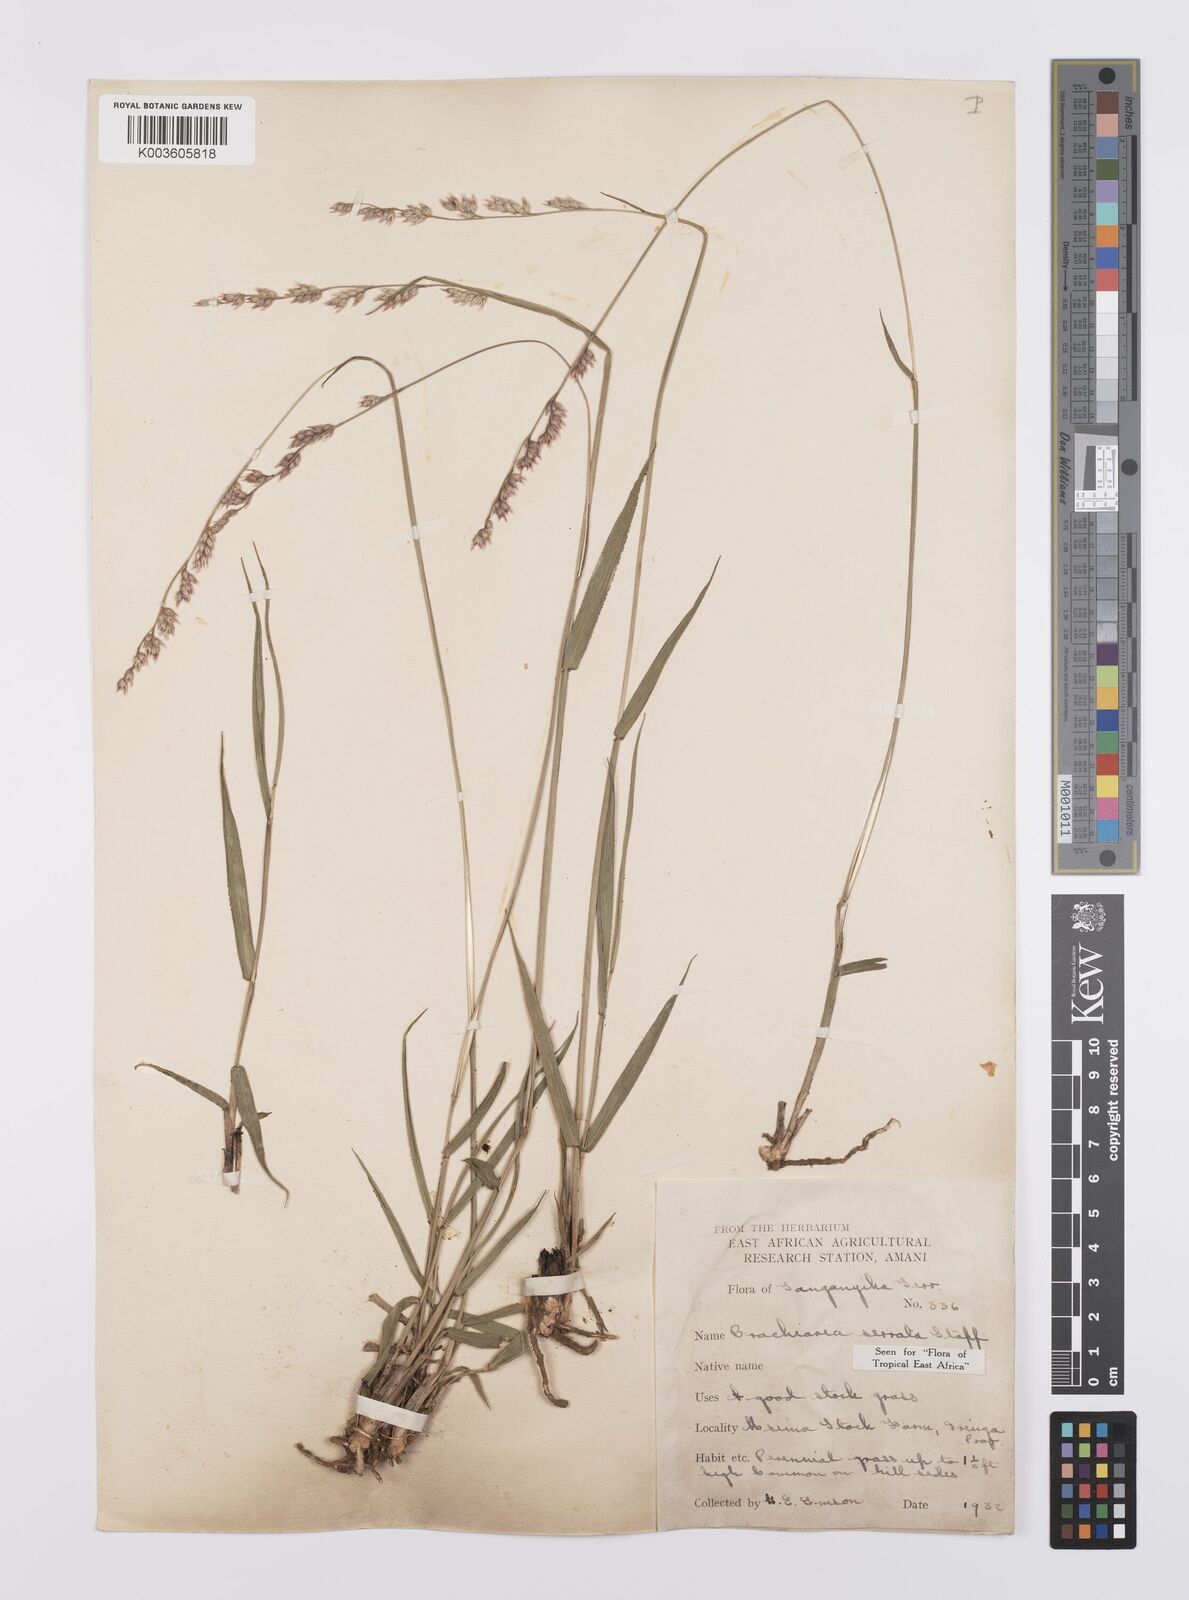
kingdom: Plantae
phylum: Tracheophyta
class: Liliopsida
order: Poales
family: Poaceae
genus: Urochloa
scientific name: Urochloa serrata
